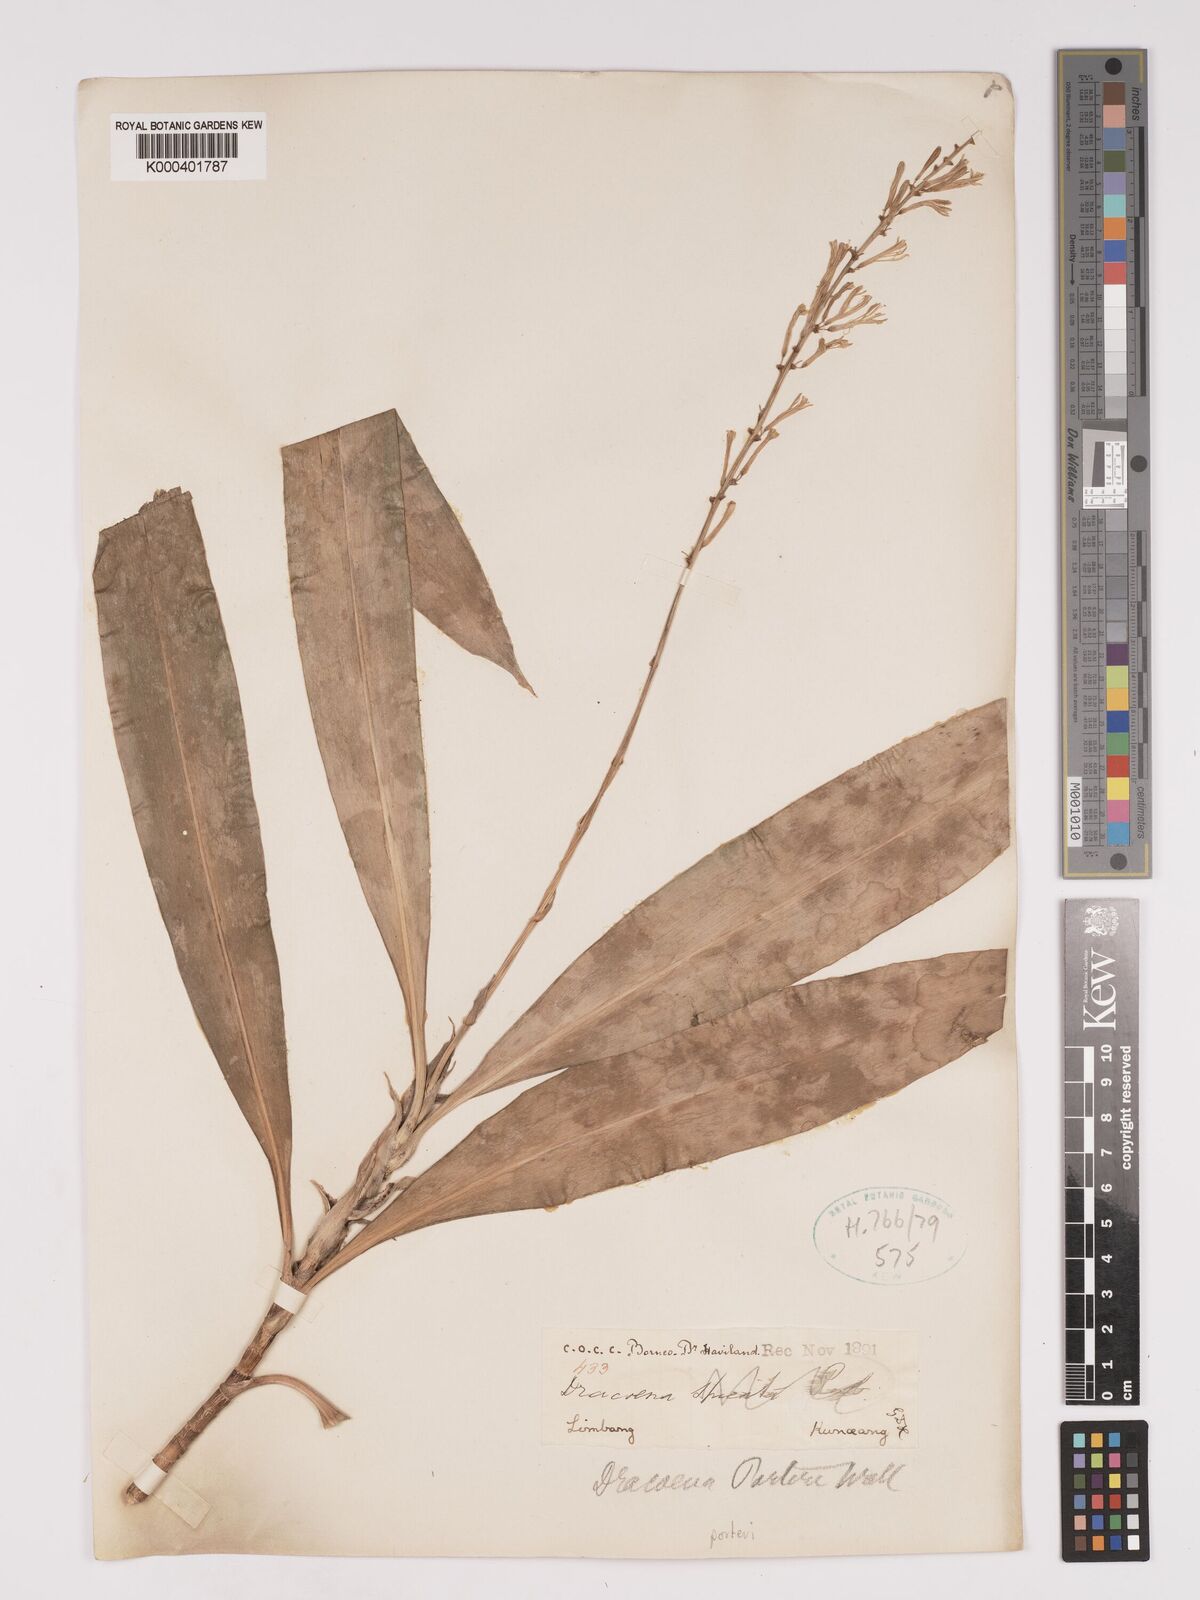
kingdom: Plantae
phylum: Tracheophyta
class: Liliopsida
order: Asparagales
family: Asparagaceae
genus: Dracaena
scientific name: Dracaena porteri
